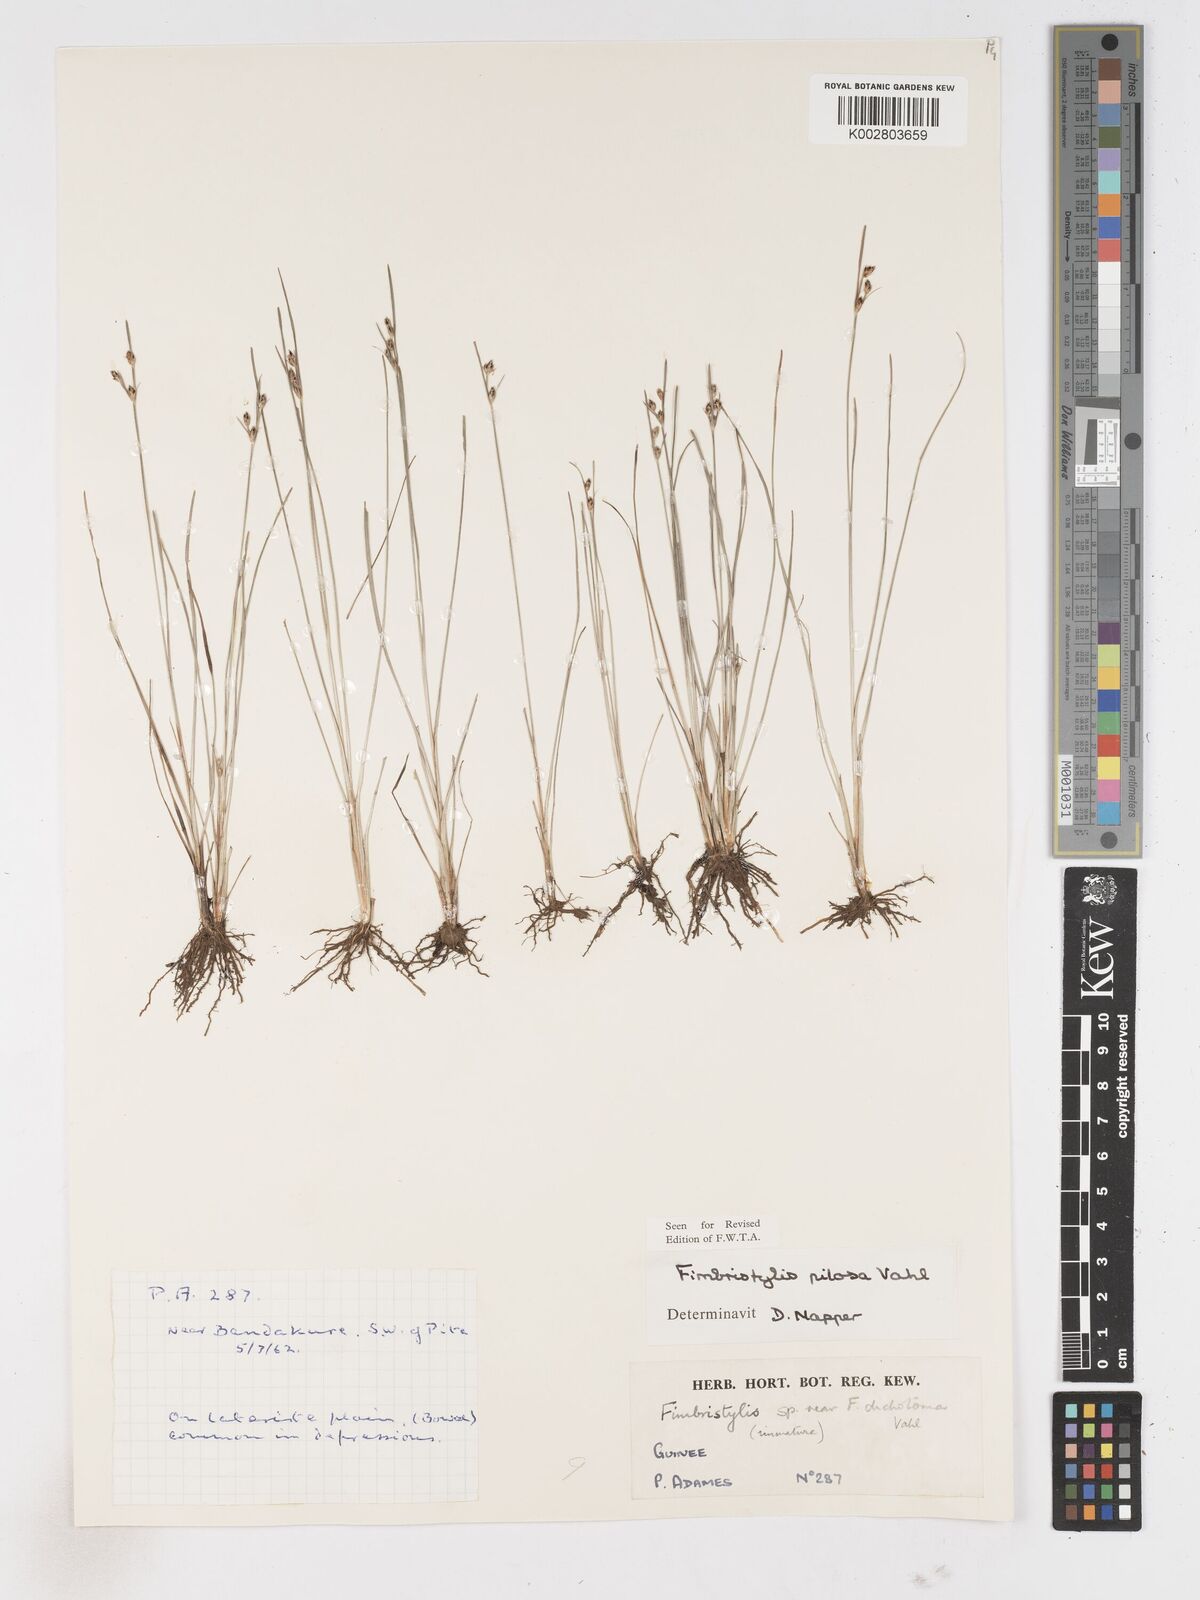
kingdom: Plantae
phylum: Tracheophyta
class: Liliopsida
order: Poales
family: Cyperaceae
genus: Fimbristylis
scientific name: Fimbristylis pilosa
